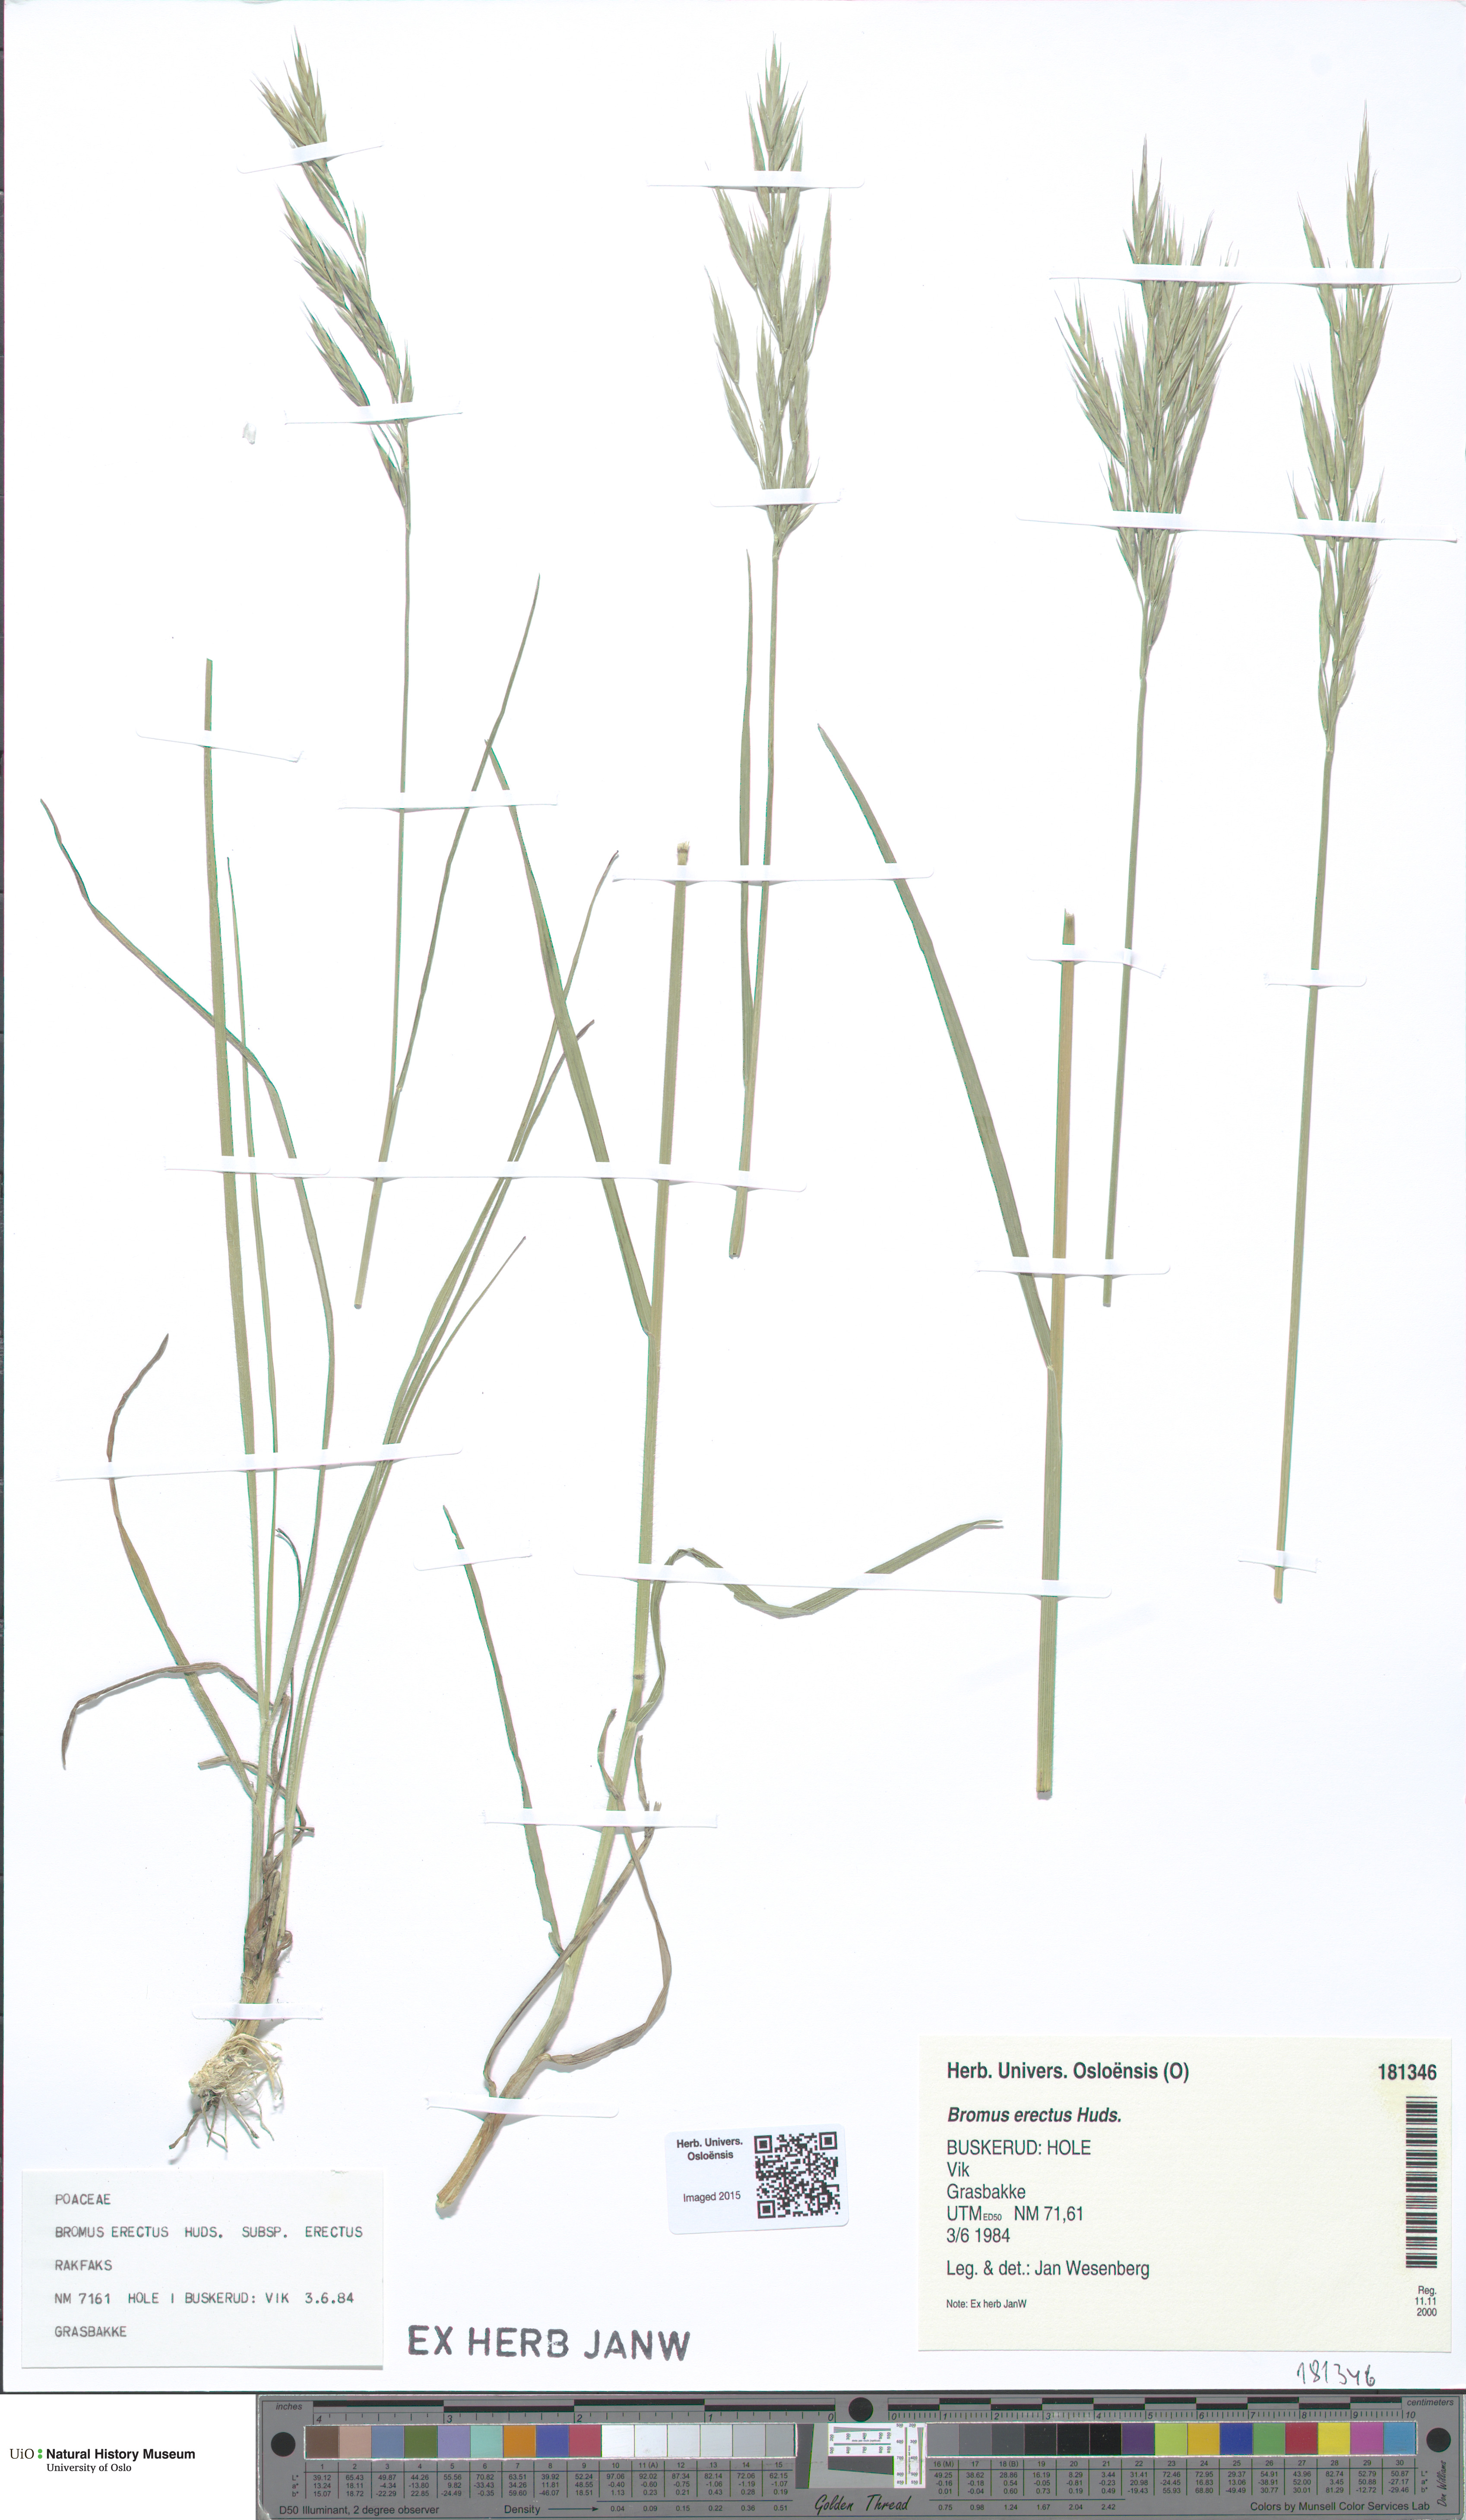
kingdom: Plantae
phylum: Tracheophyta
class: Liliopsida
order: Poales
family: Poaceae
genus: Bromus
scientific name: Bromus erectus
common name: Erect brome
